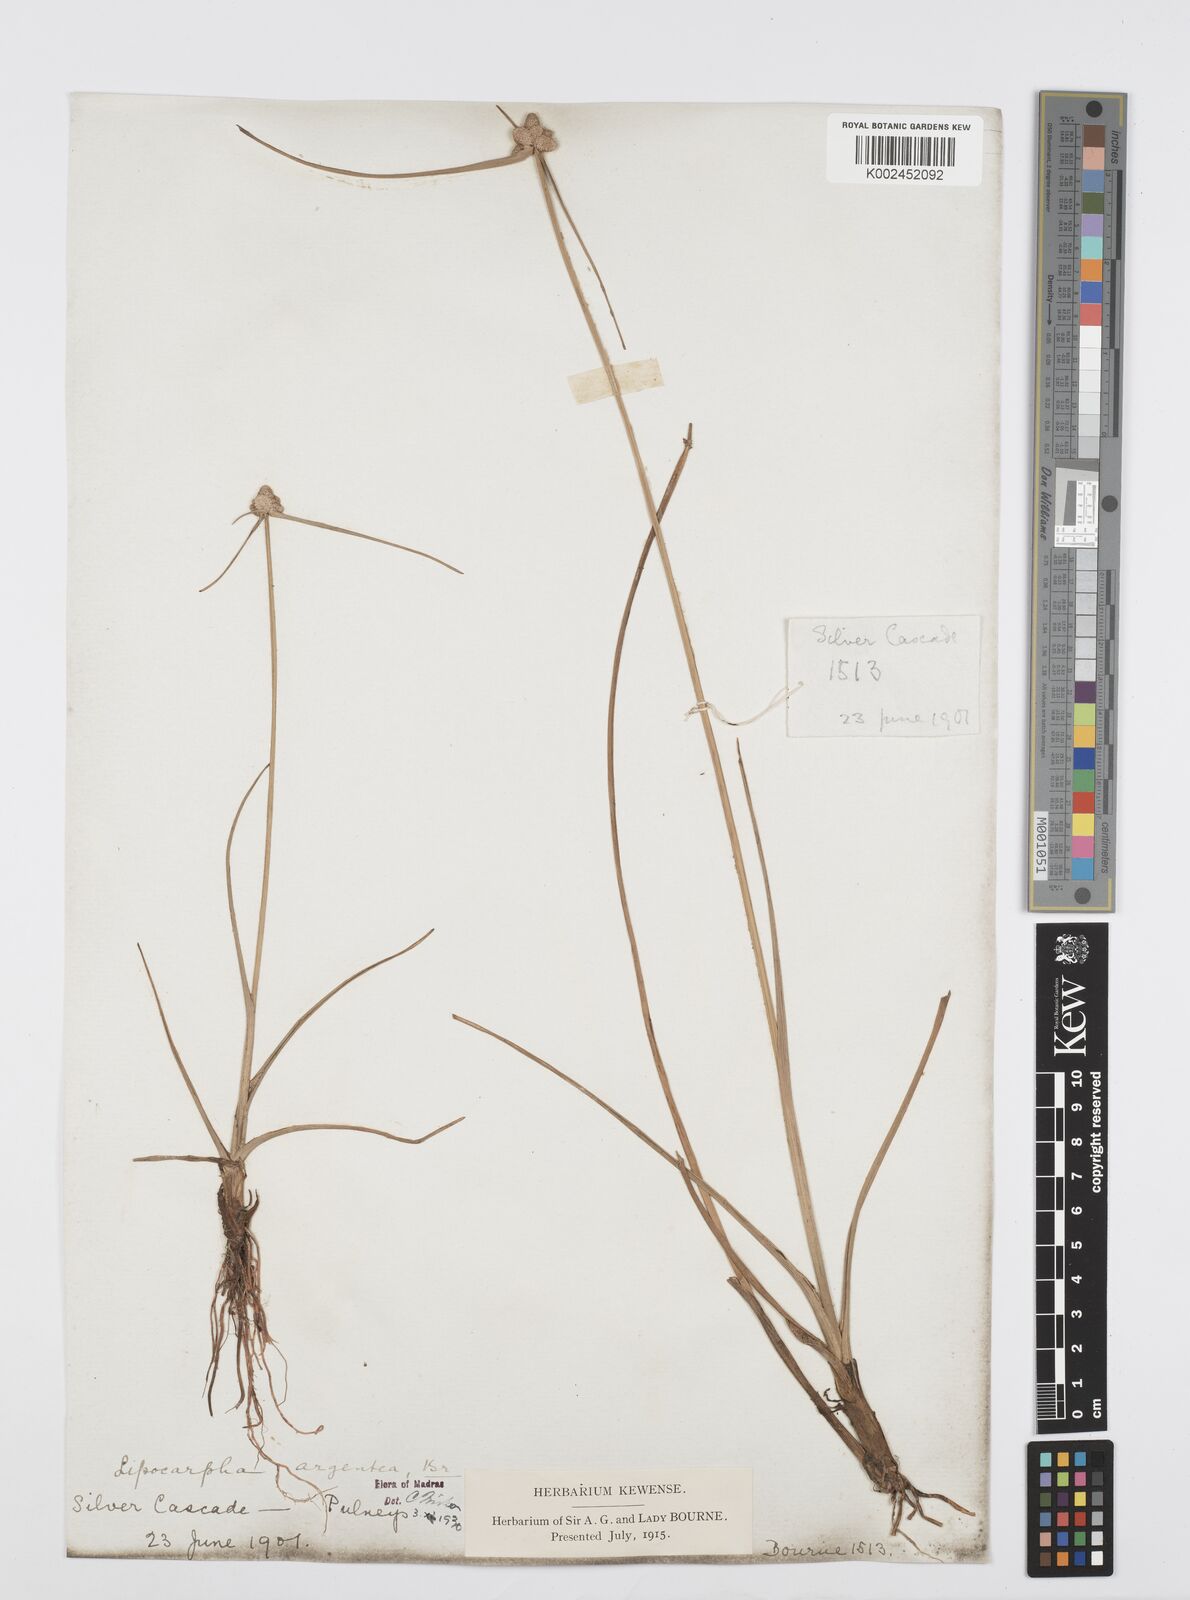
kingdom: Plantae
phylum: Tracheophyta
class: Liliopsida
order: Poales
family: Cyperaceae
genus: Cyperus
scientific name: Cyperus
